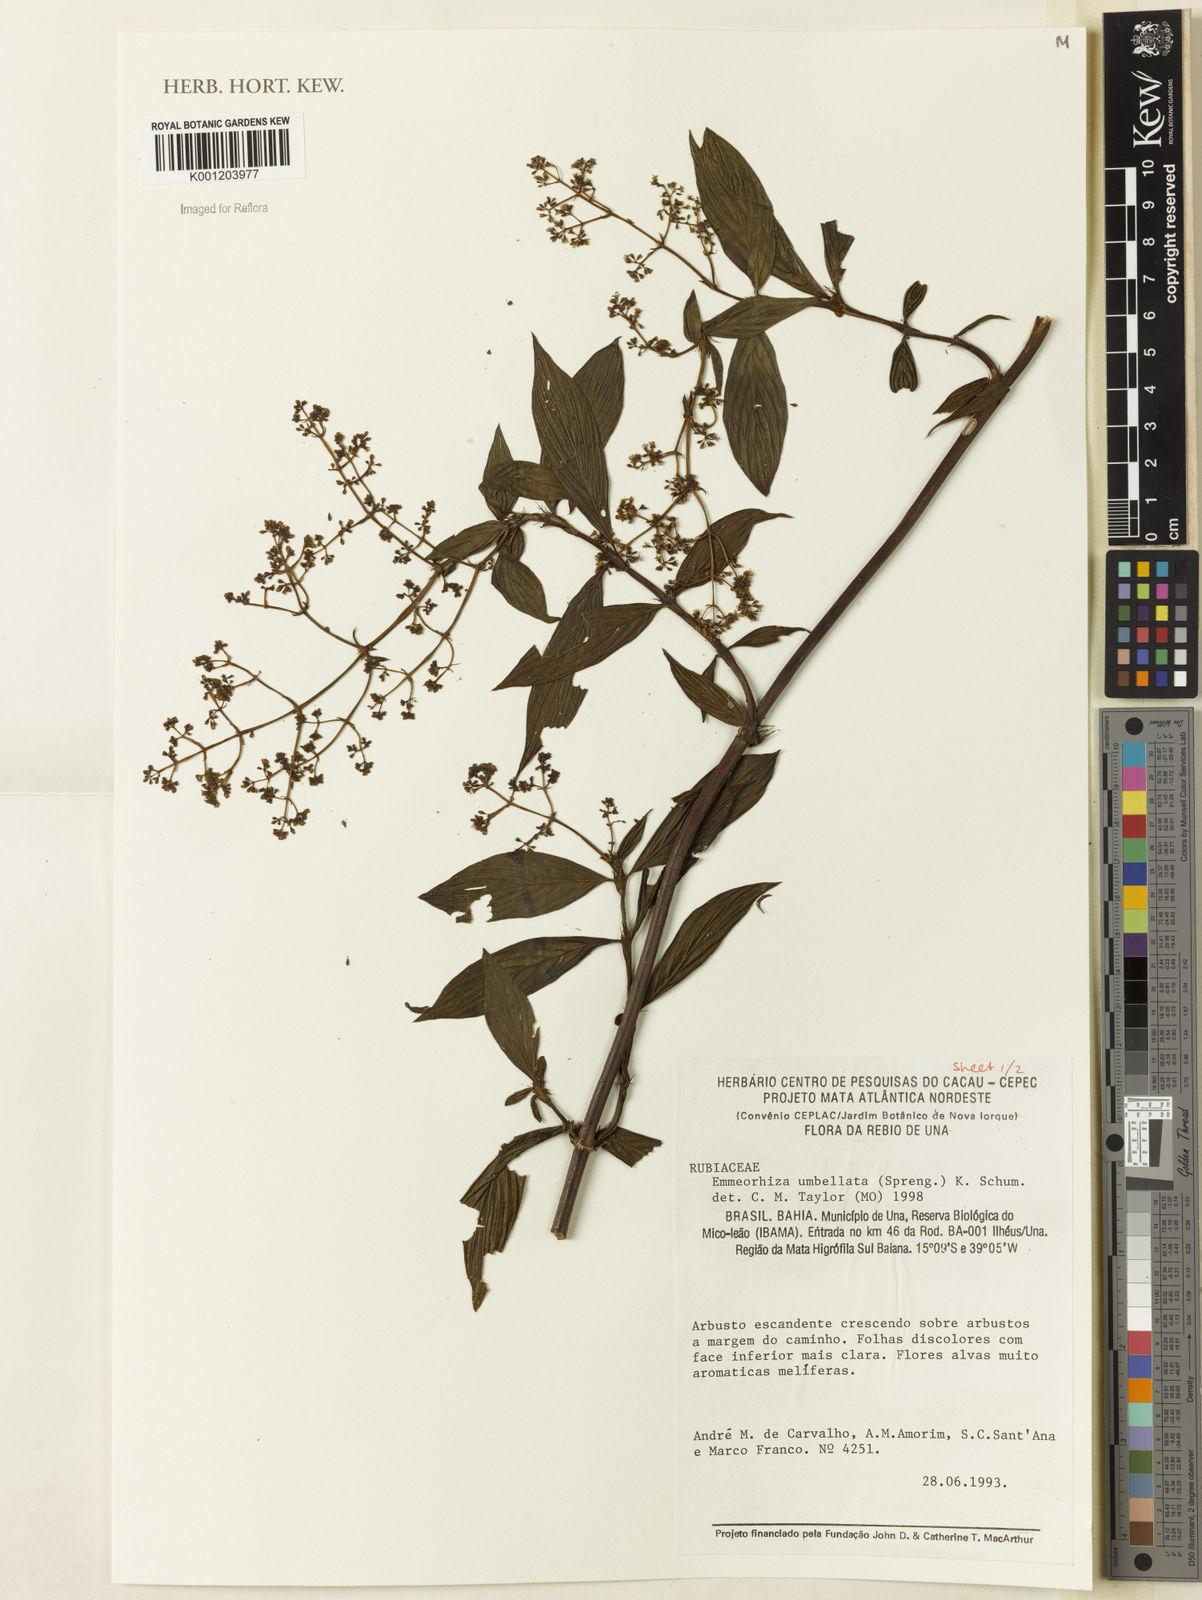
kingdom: Plantae
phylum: Tracheophyta
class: Magnoliopsida
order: Gentianales
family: Rubiaceae
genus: Emmeorhiza
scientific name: Emmeorhiza umbellata
